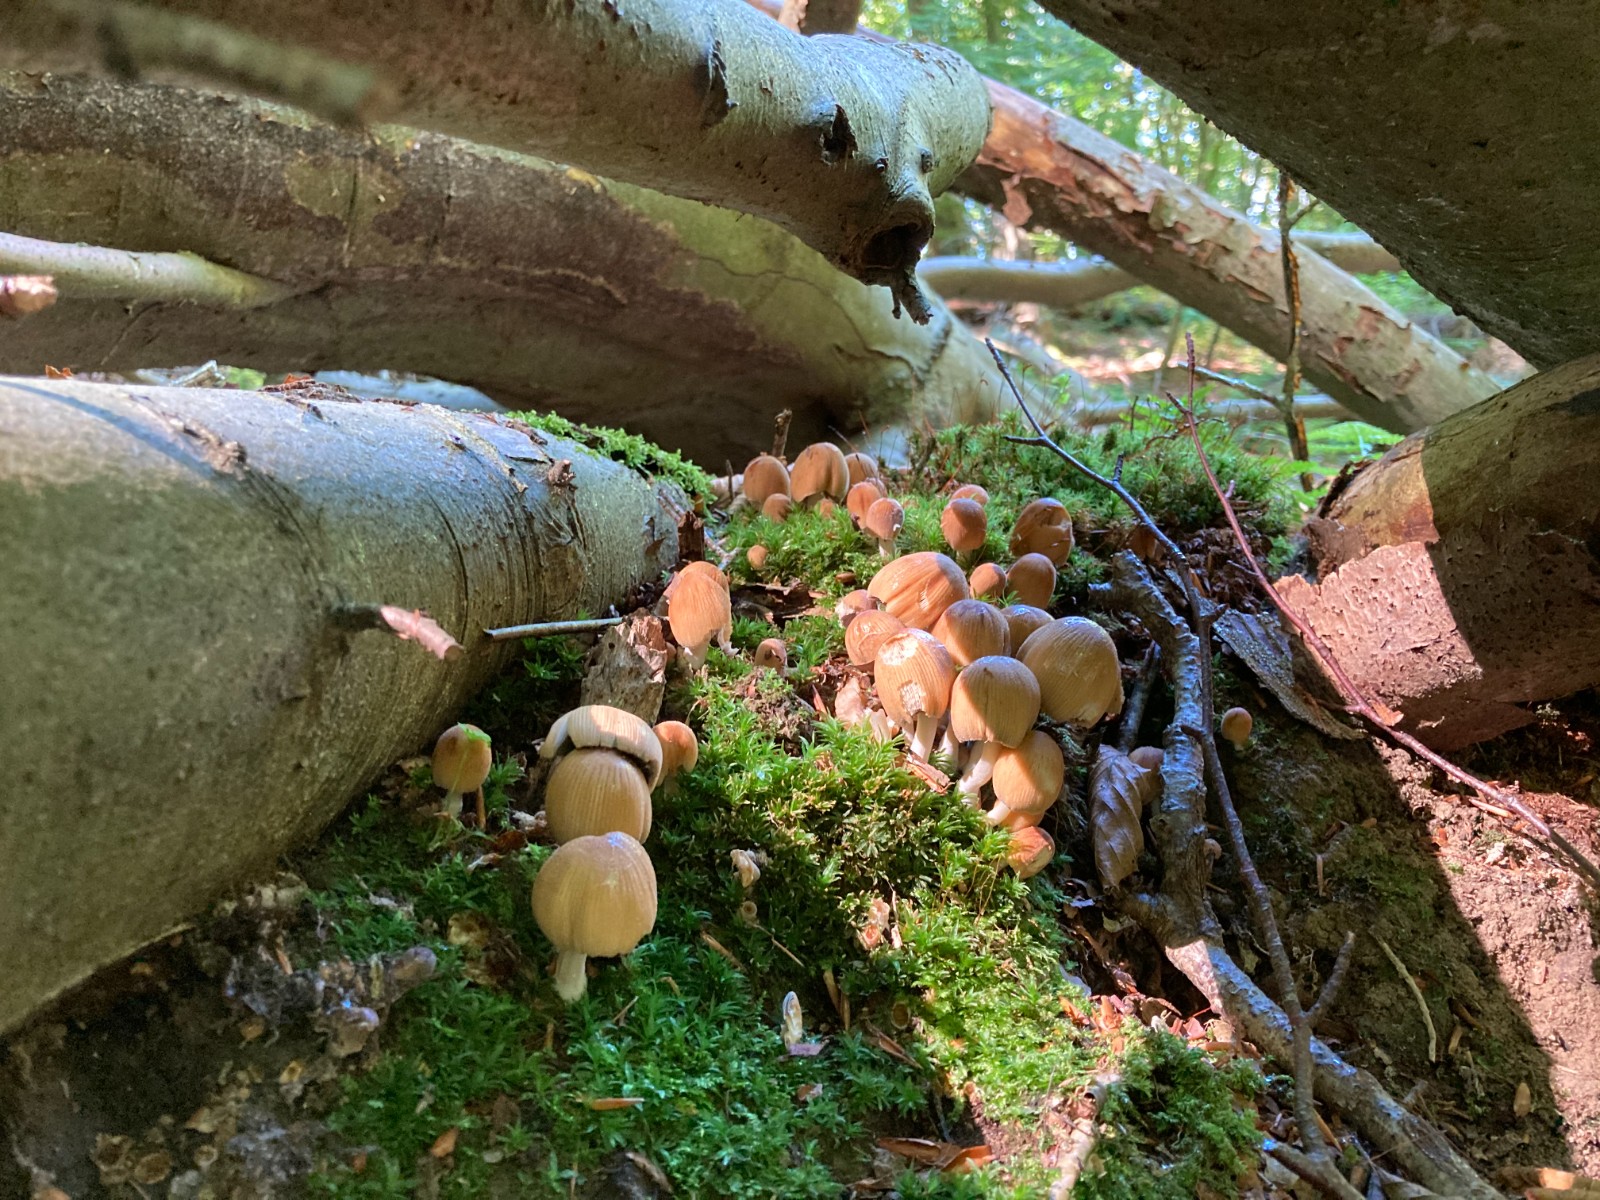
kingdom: Fungi
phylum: Basidiomycota
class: Agaricomycetes
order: Agaricales
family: Psathyrellaceae
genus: Coprinellus
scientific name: Coprinellus micaceus
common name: glimmer-blækhat
